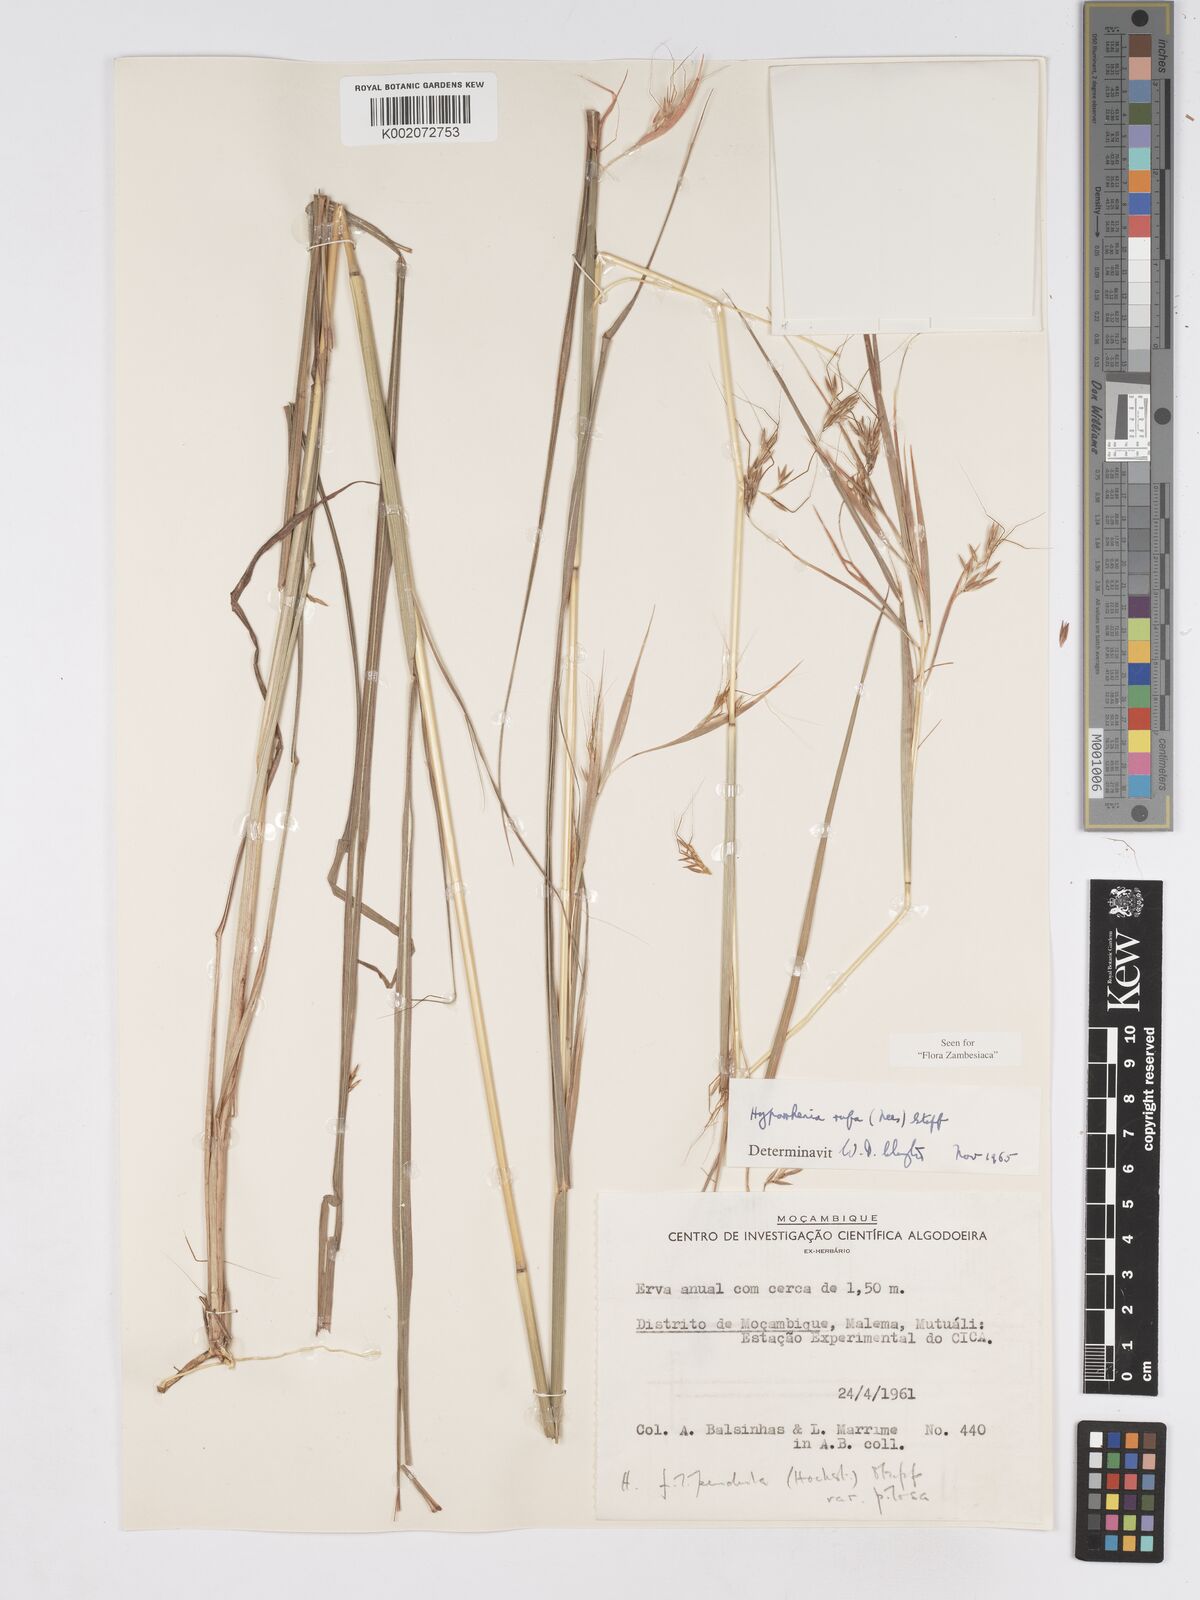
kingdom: Plantae
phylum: Tracheophyta
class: Liliopsida
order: Poales
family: Poaceae
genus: Hyparrhenia
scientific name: Hyparrhenia rufa
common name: Jaraguagrass
